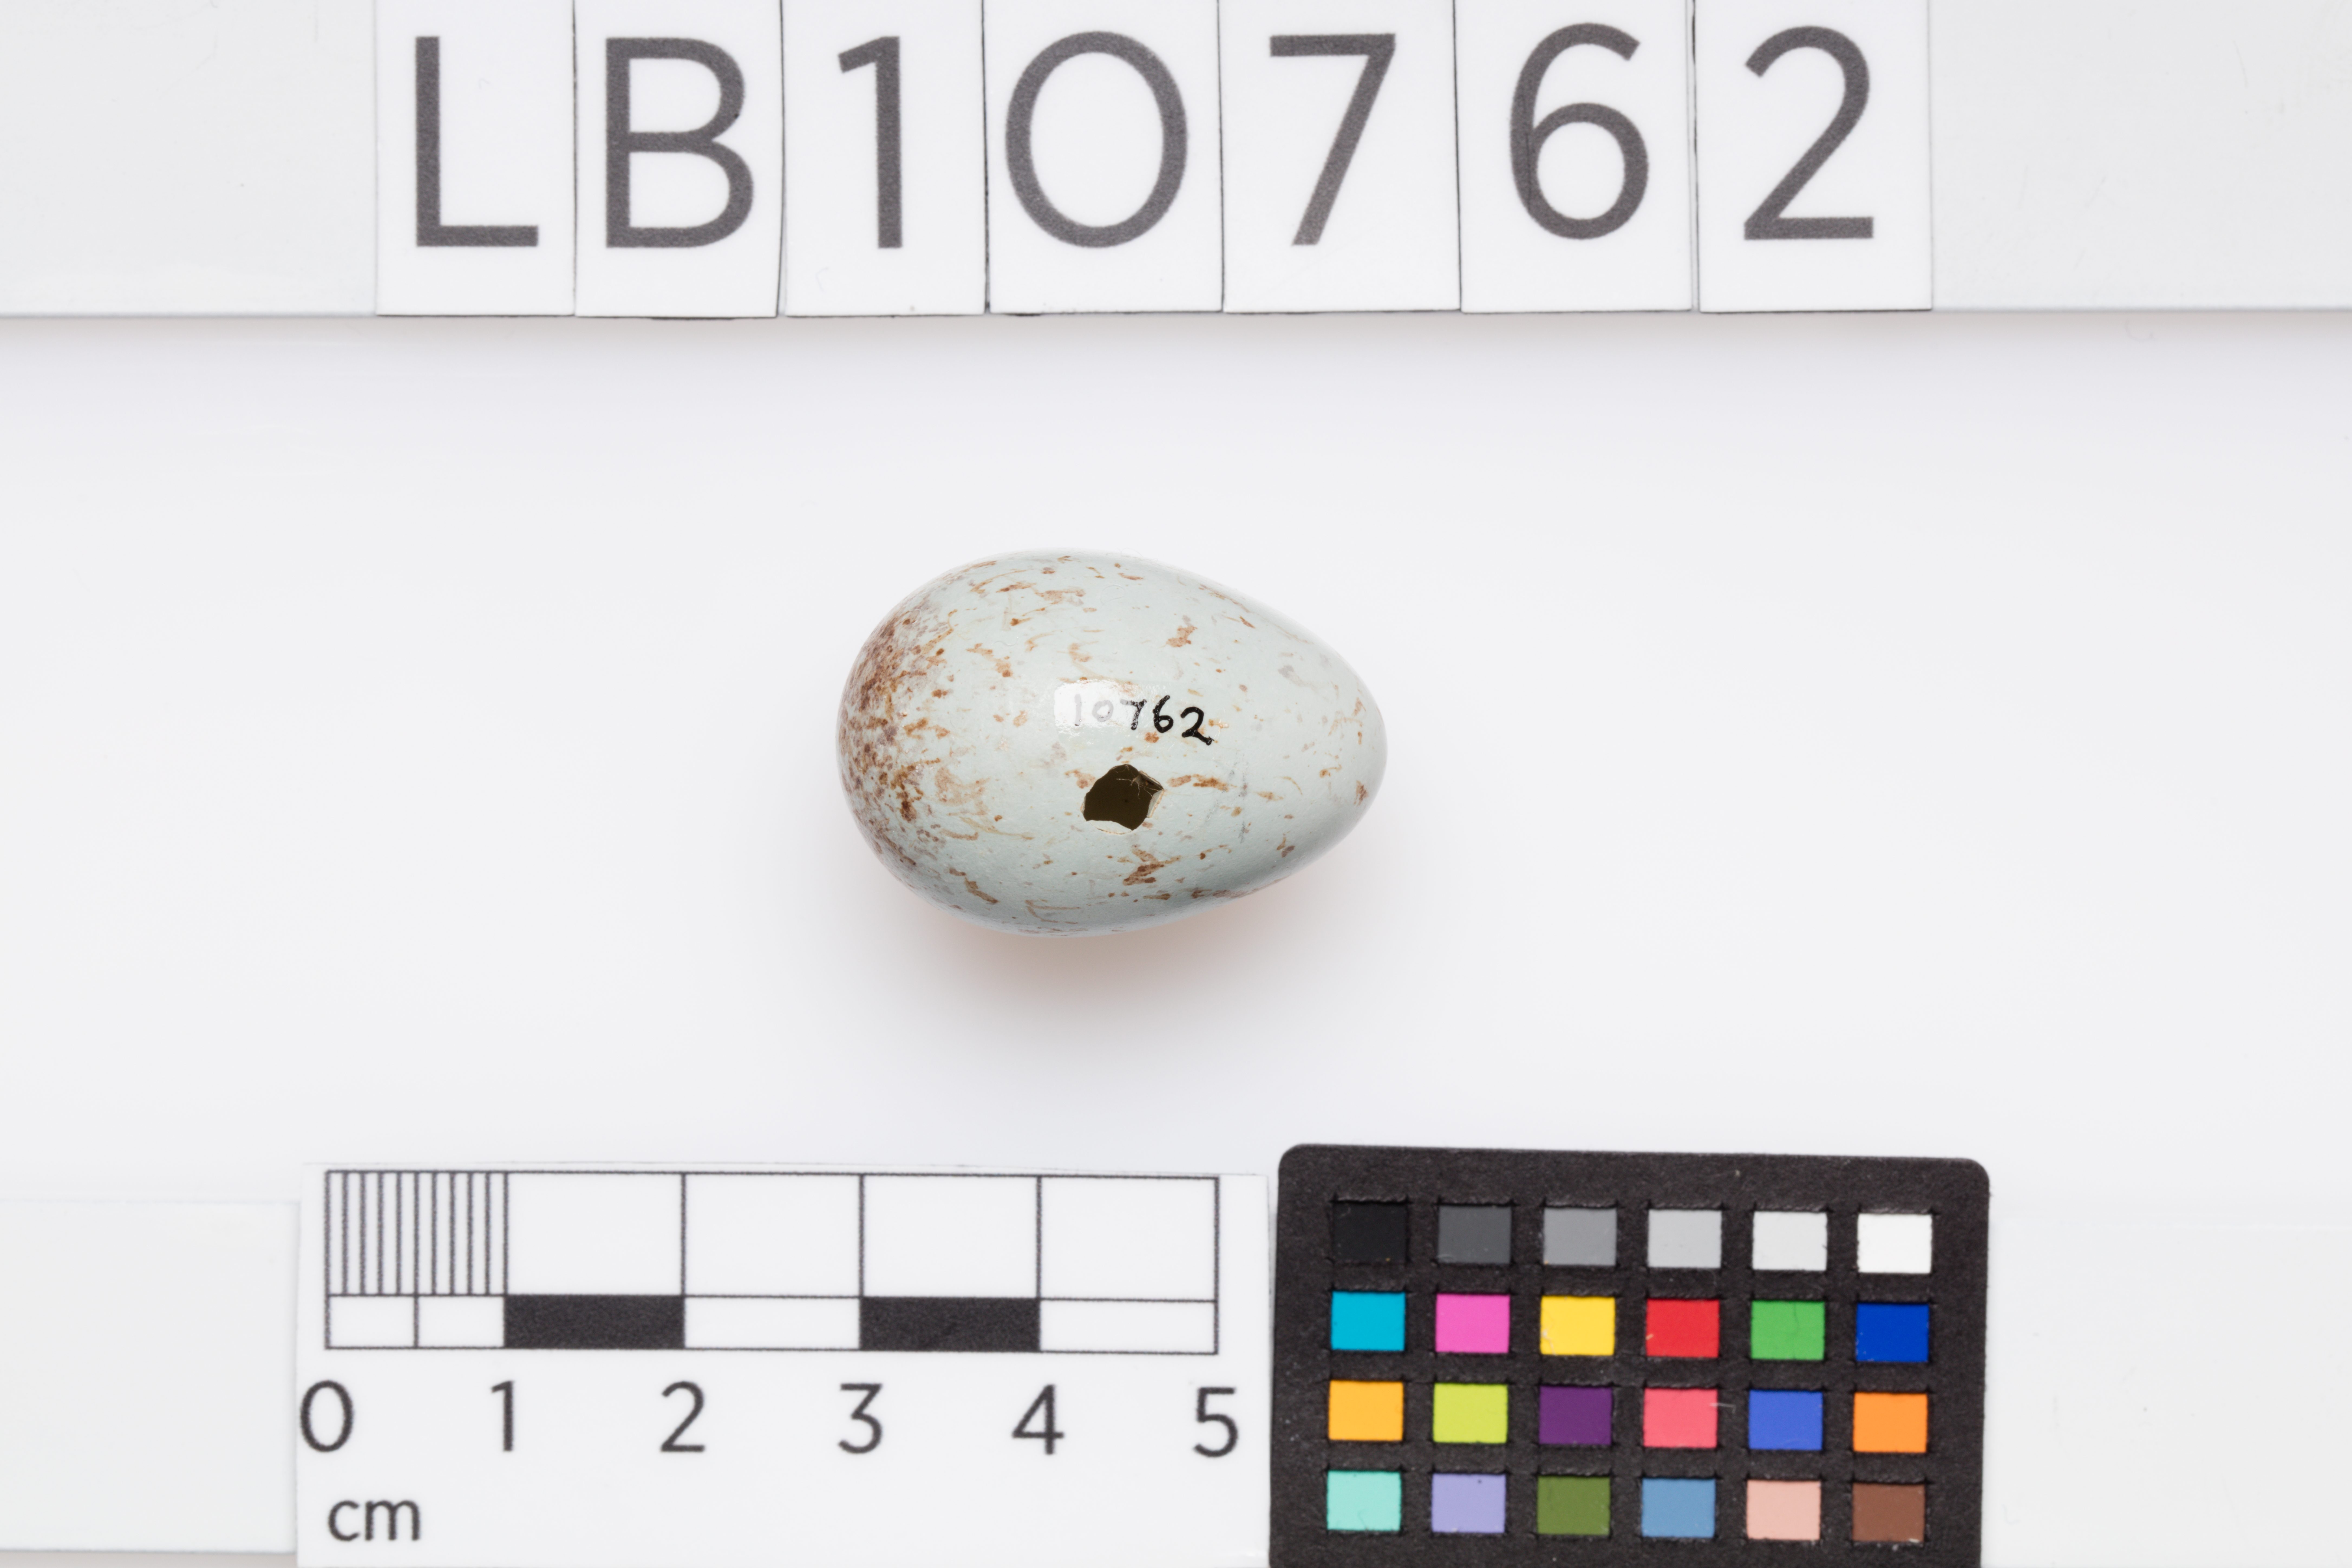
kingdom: Animalia
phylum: Chordata
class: Aves
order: Passeriformes
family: Turdidae
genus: Turdus
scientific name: Turdus torquatus
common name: Ring ouzel
